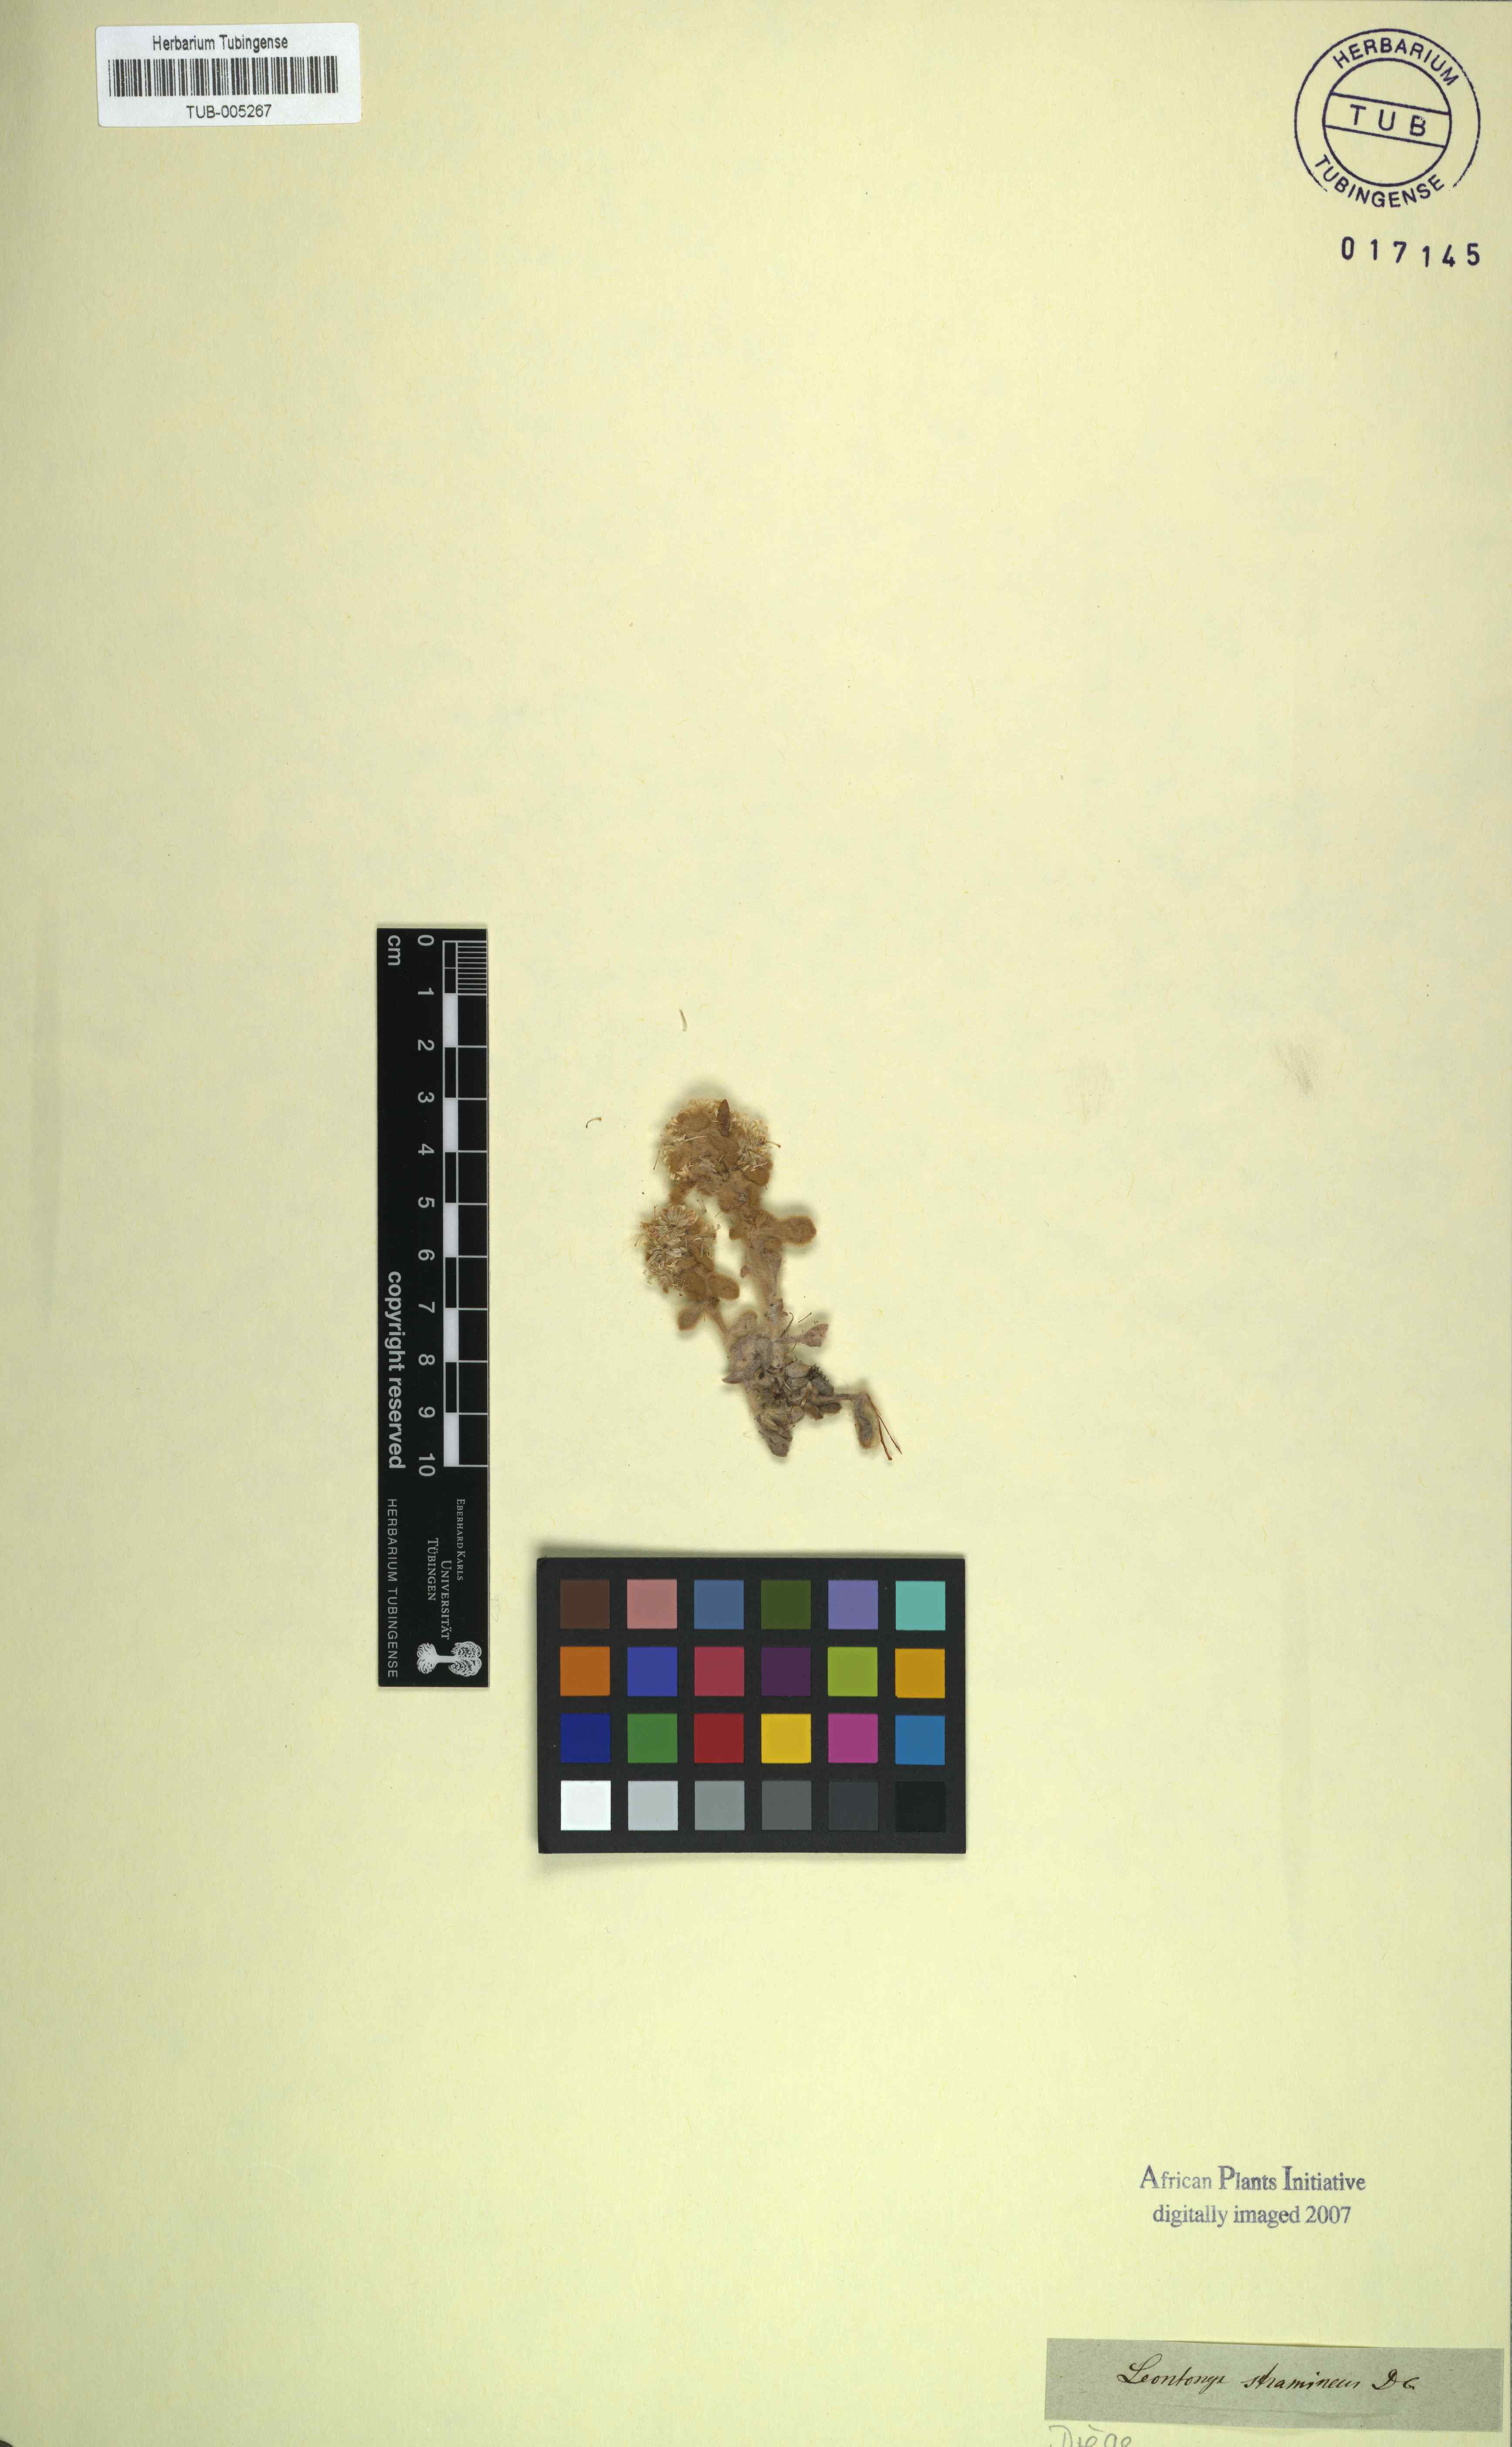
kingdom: Plantae
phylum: Tracheophyta
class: Magnoliopsida
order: Asterales
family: Asteraceae
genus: Helichrysum
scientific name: Helichrysum Leontonyx stramineus
